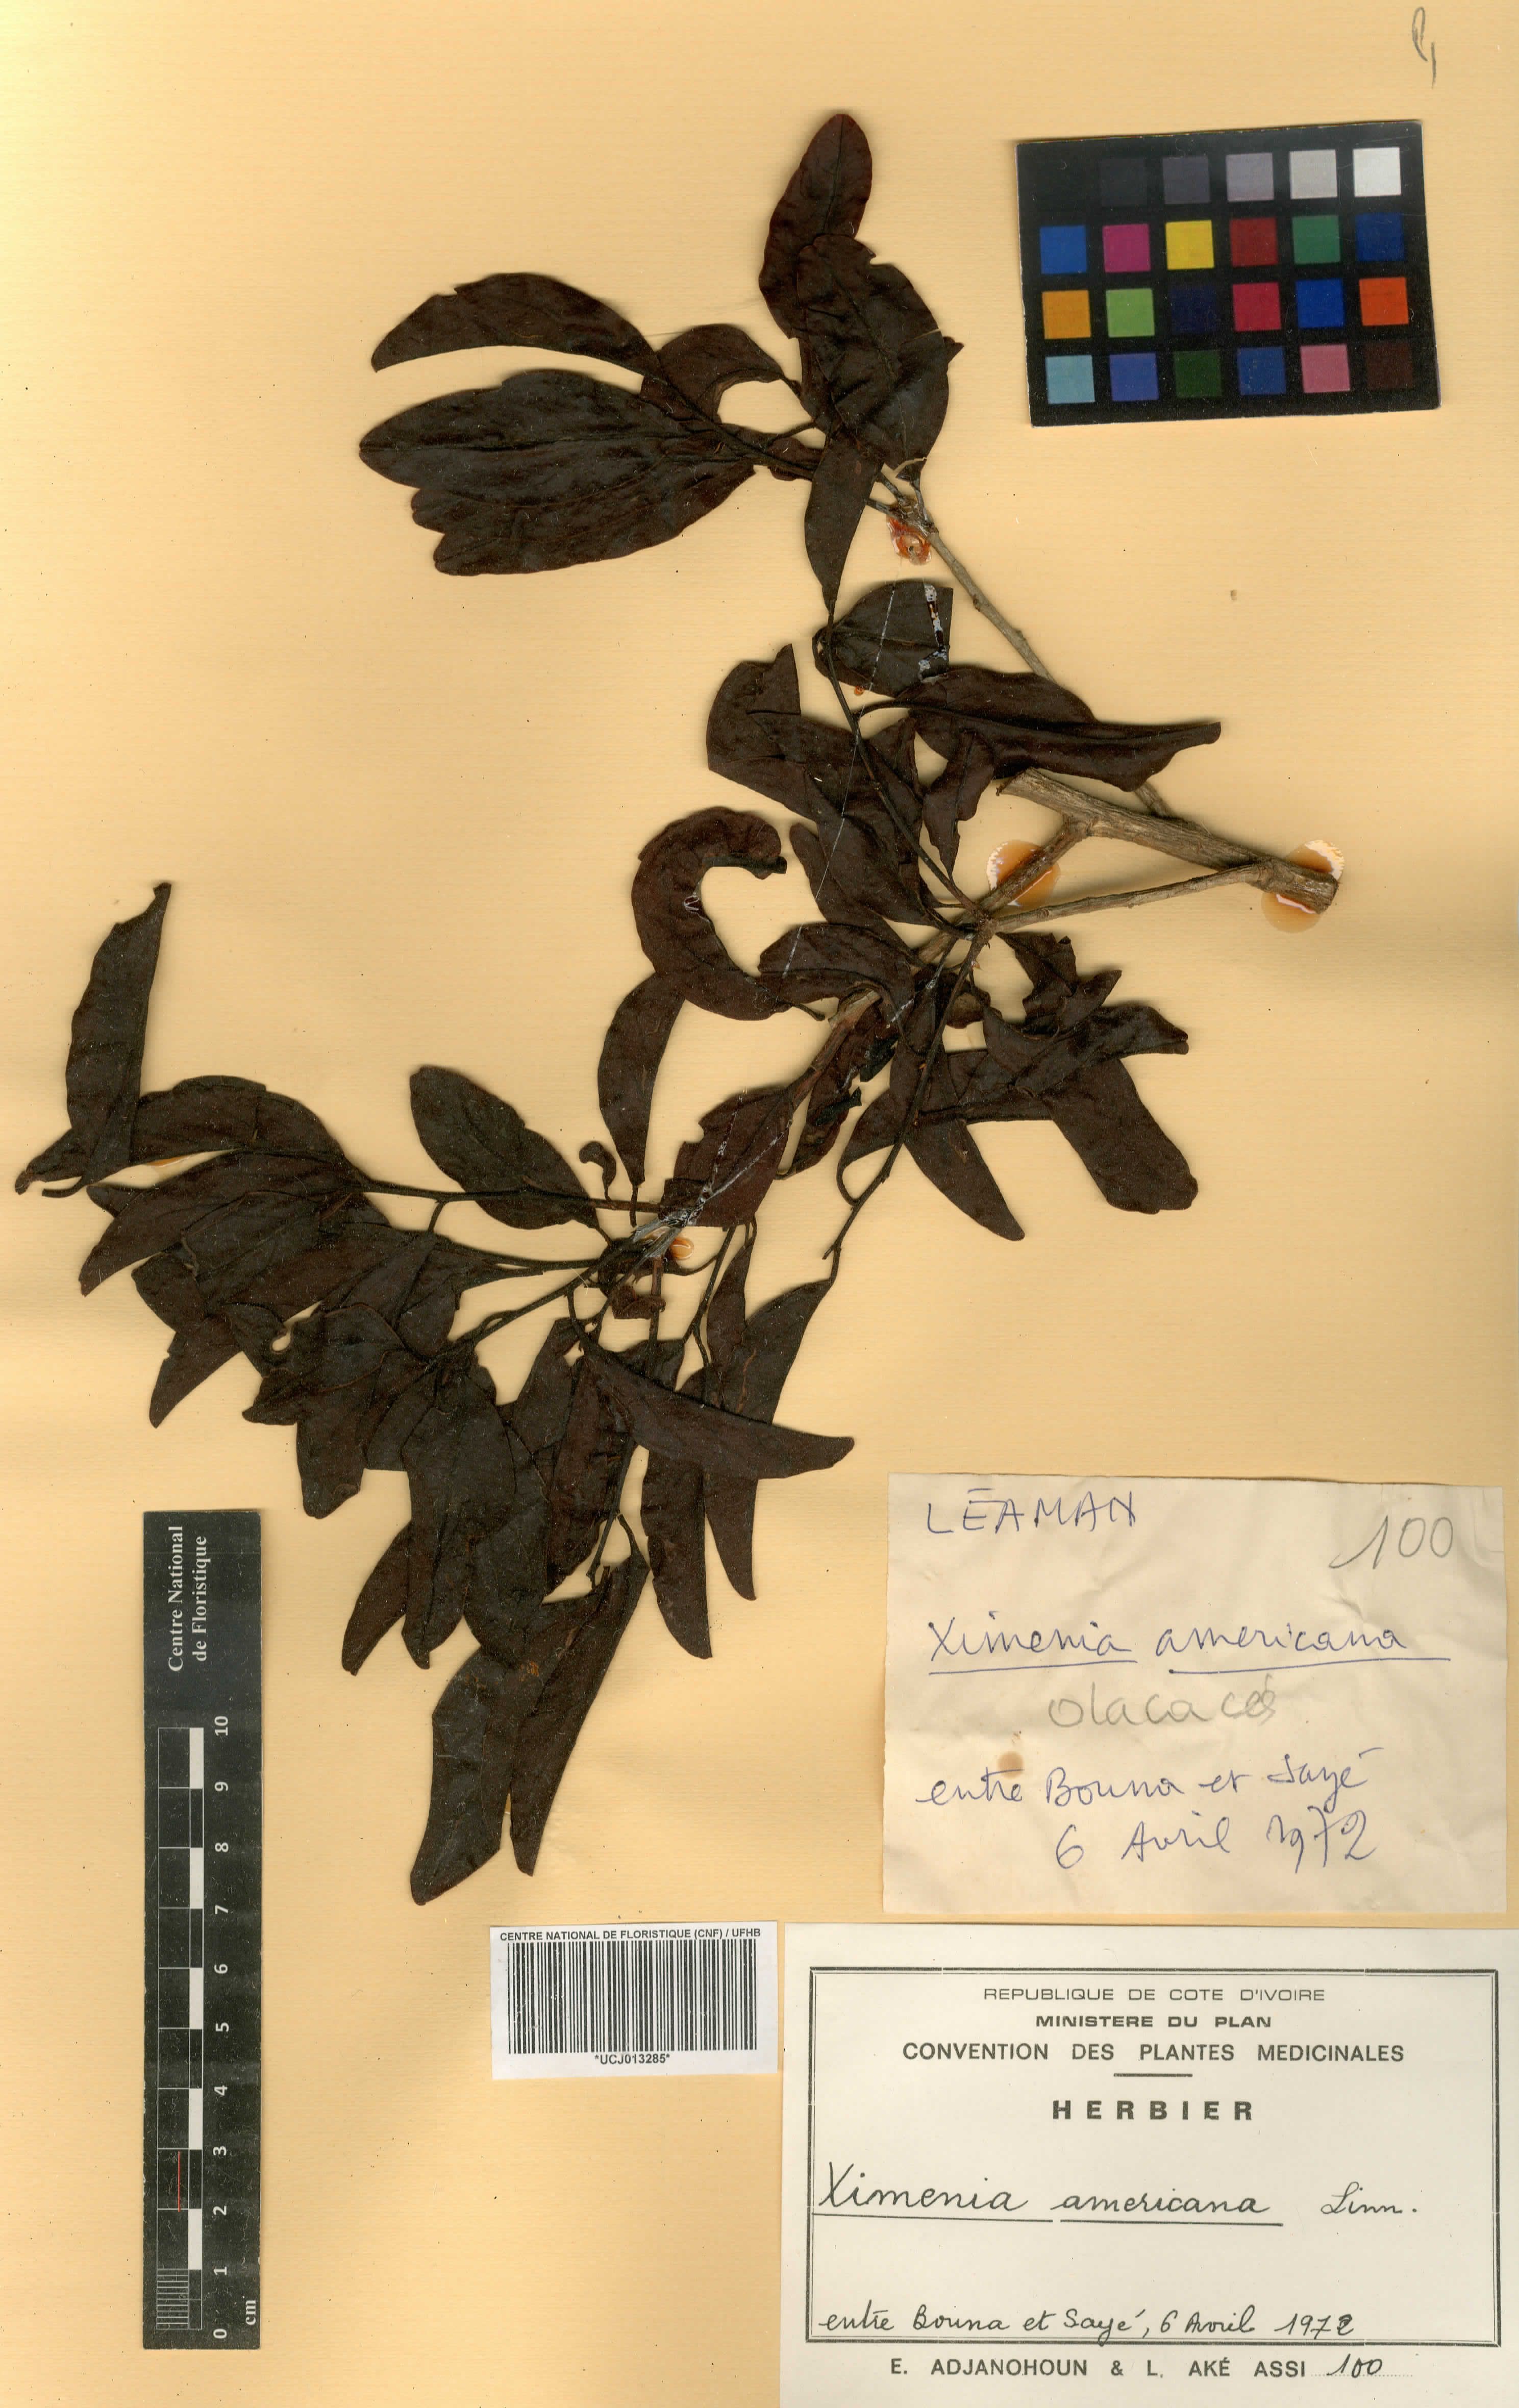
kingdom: Plantae
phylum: Tracheophyta
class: Magnoliopsida
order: Santalales
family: Ximeniaceae
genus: Ximenia
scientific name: Ximenia americana
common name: Tallowwood
